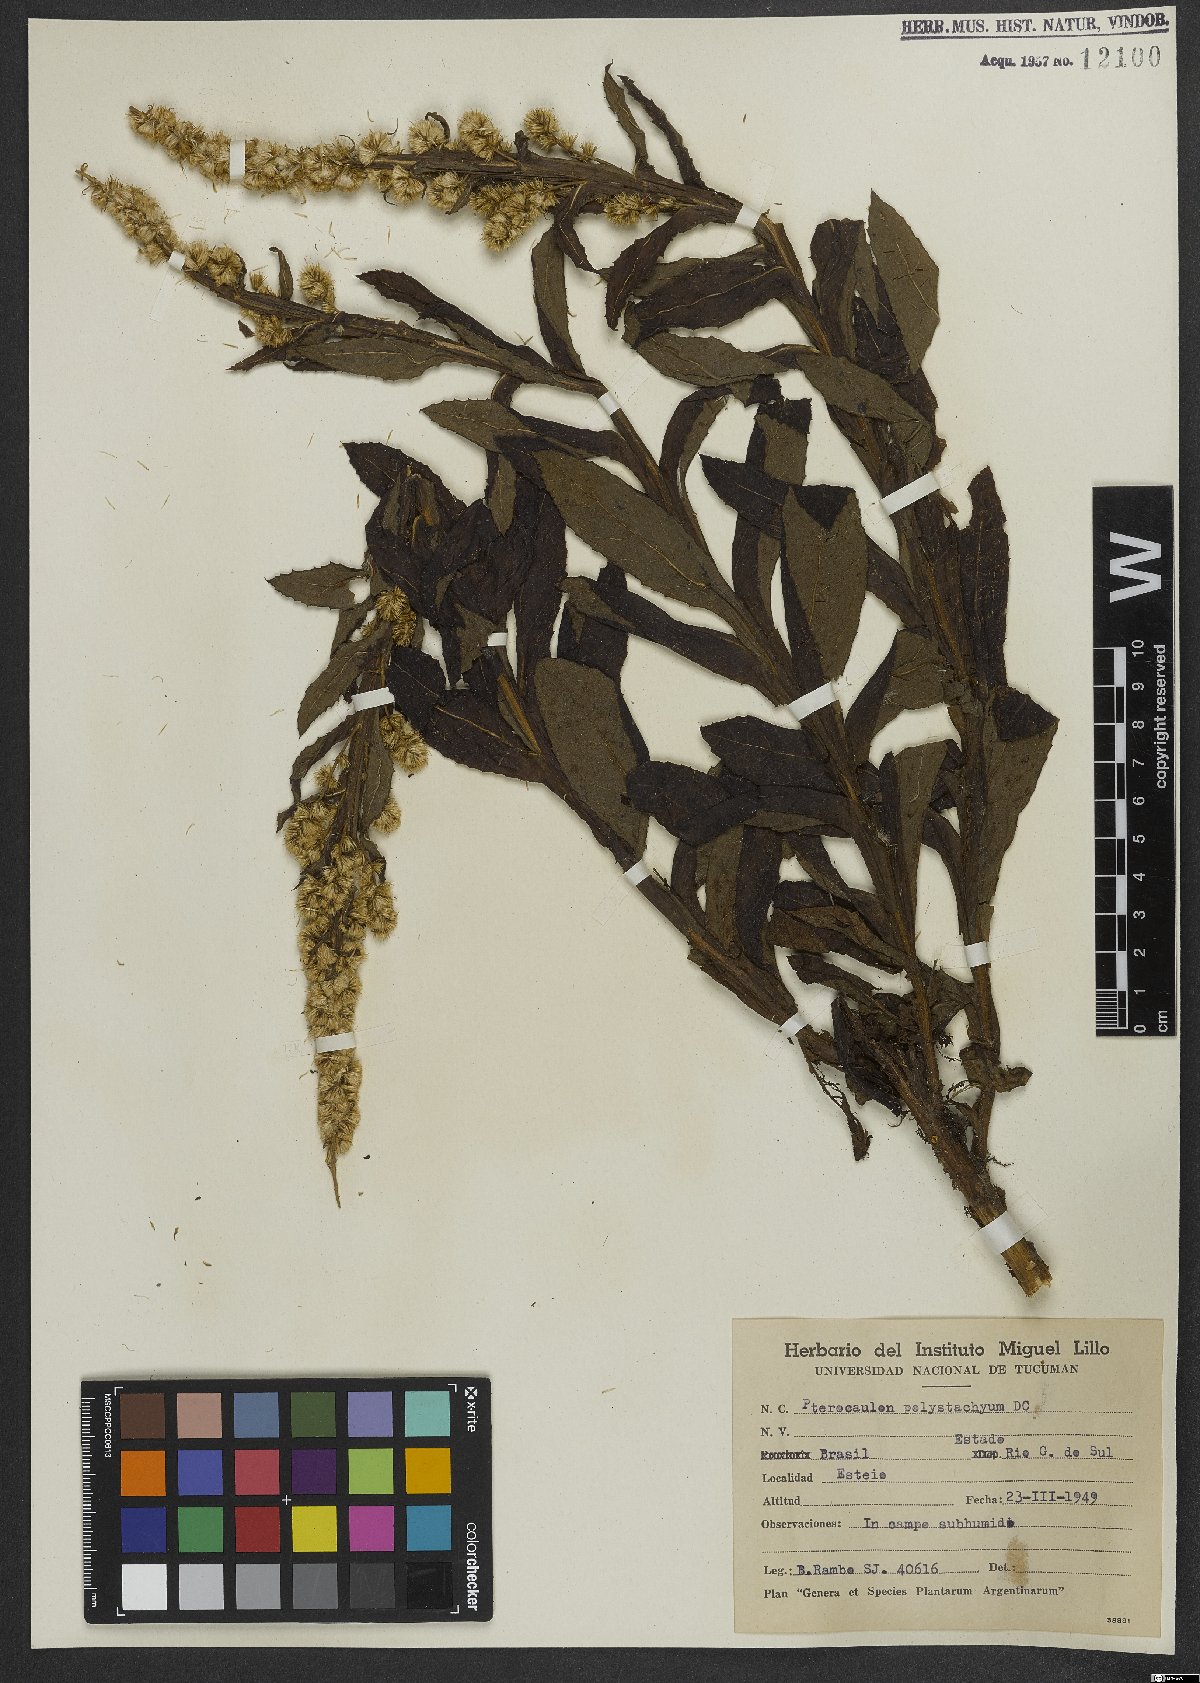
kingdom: Plantae
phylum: Tracheophyta
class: Magnoliopsida
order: Asterales
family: Asteraceae
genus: Pterocaulon
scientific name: Pterocaulon polystachyum
